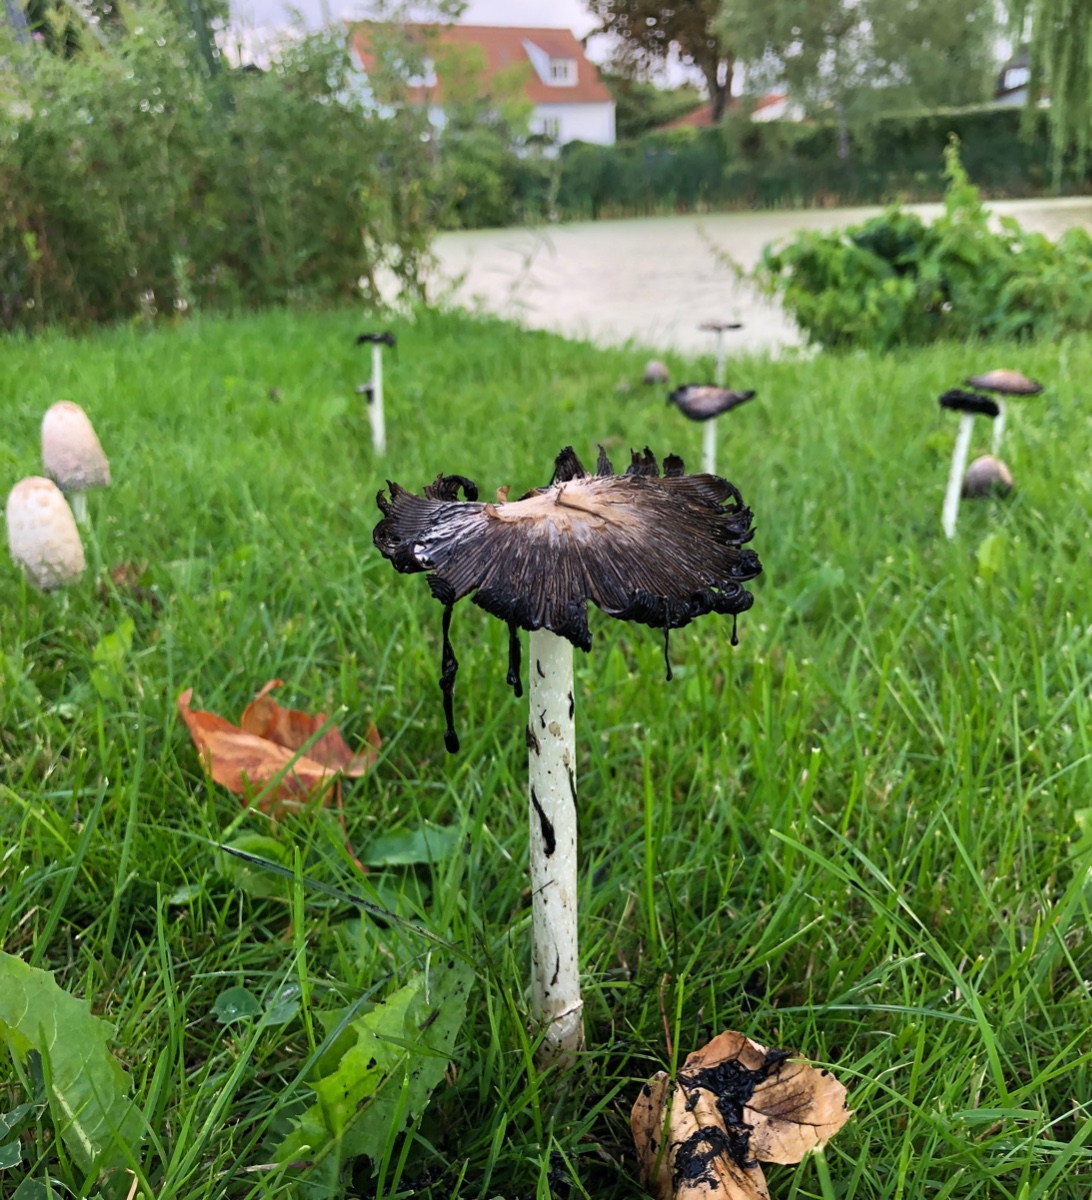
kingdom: Fungi
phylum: Basidiomycota
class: Agaricomycetes
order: Agaricales
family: Agaricaceae
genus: Coprinus
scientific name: Coprinus comatus
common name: stor parykhat
